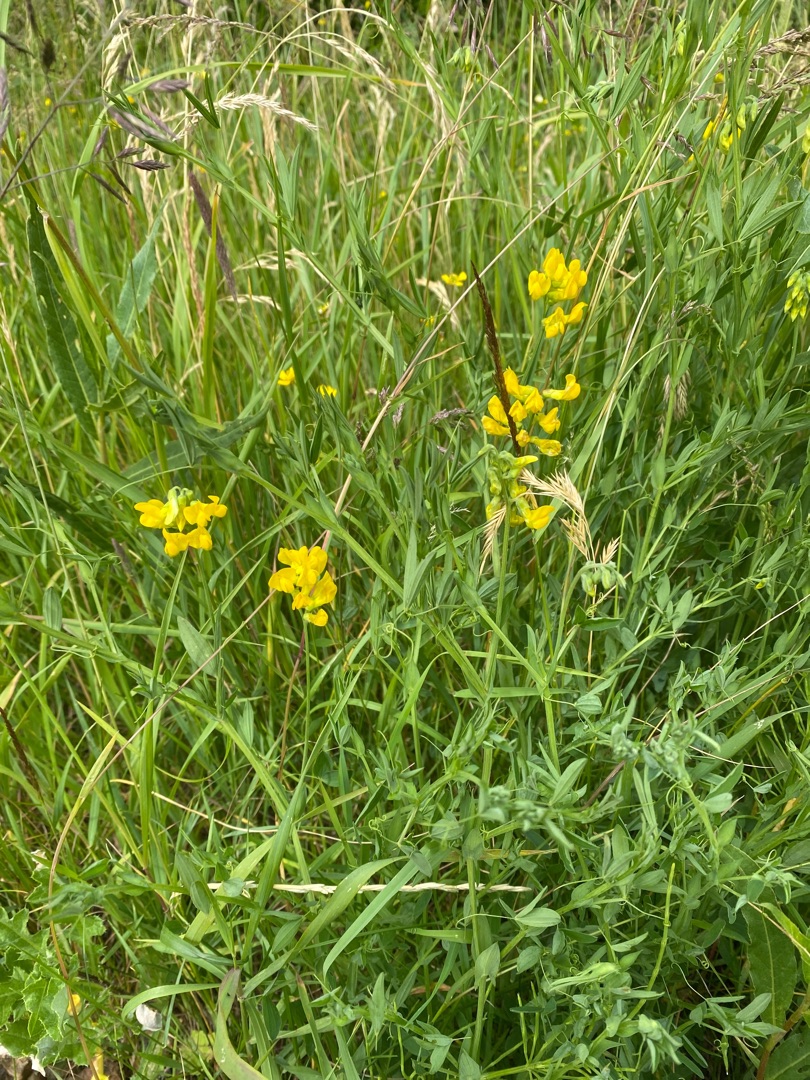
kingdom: Plantae
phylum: Tracheophyta
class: Magnoliopsida
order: Fabales
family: Fabaceae
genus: Lathyrus
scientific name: Lathyrus pratensis
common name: Gul fladbælg
